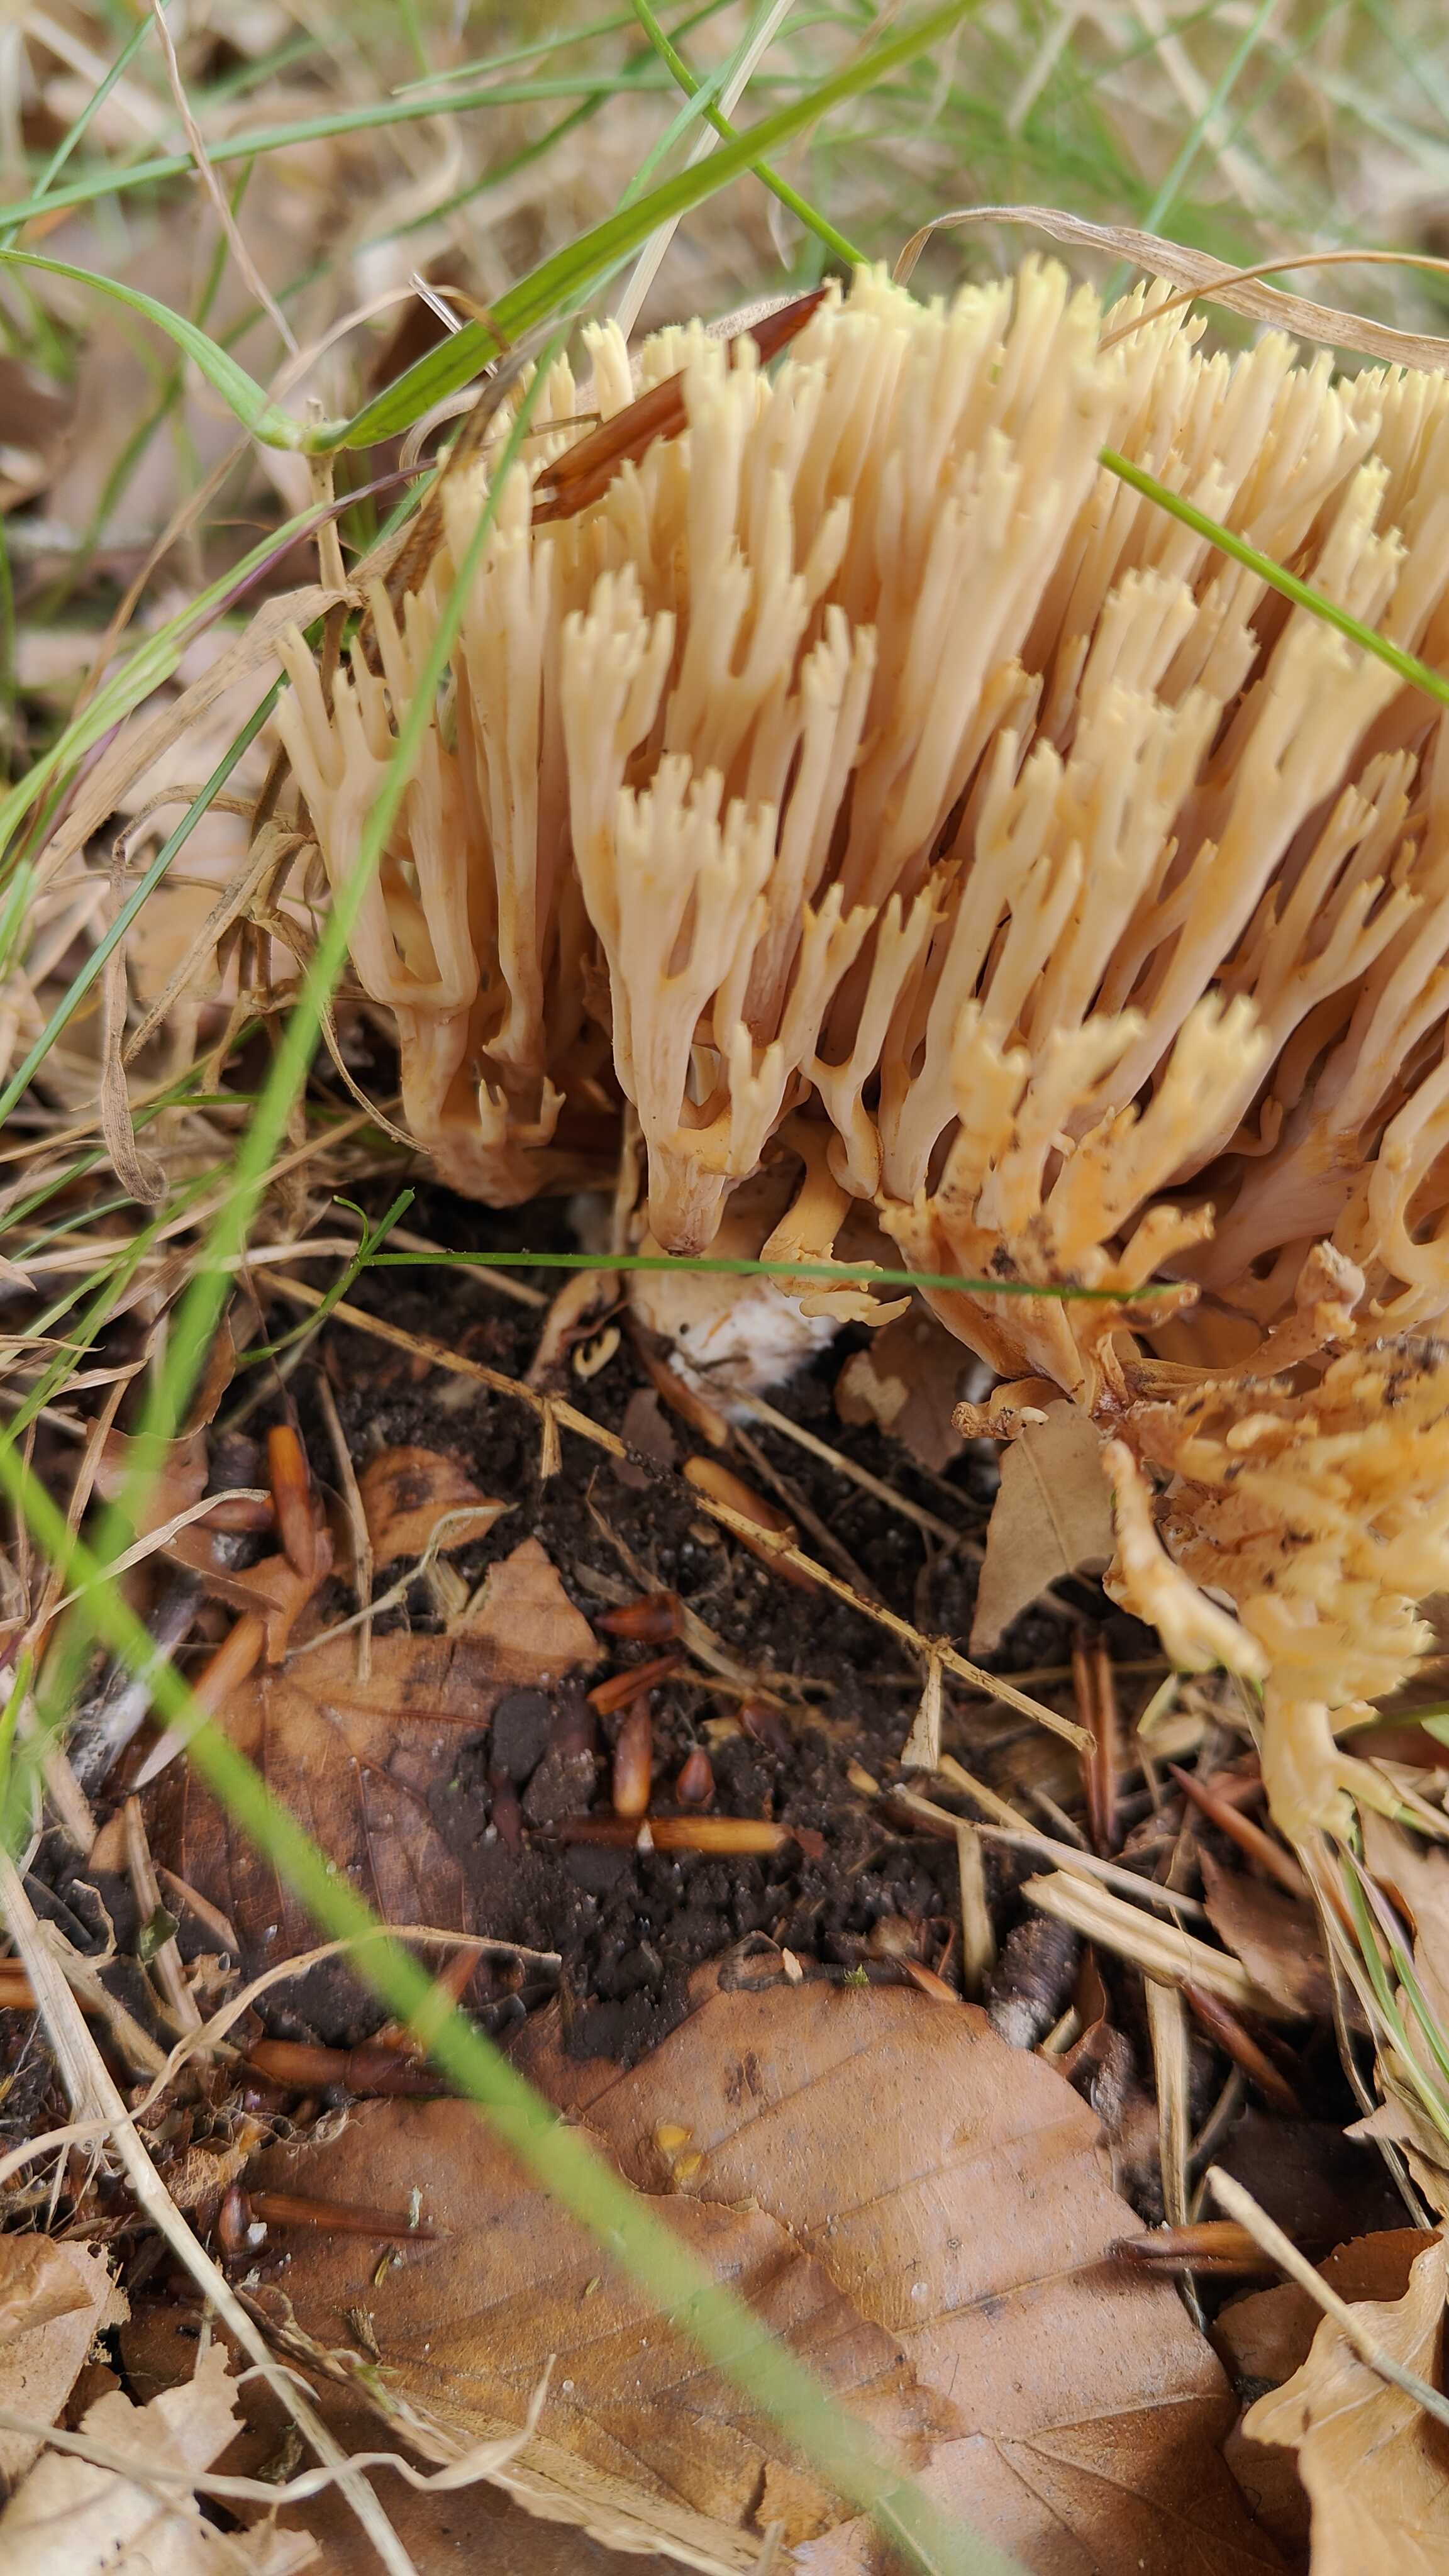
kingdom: Fungi
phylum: Basidiomycota
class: Agaricomycetes
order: Gomphales
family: Gomphaceae
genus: Ramaria
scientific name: Ramaria stricta
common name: rank koralsvamp
